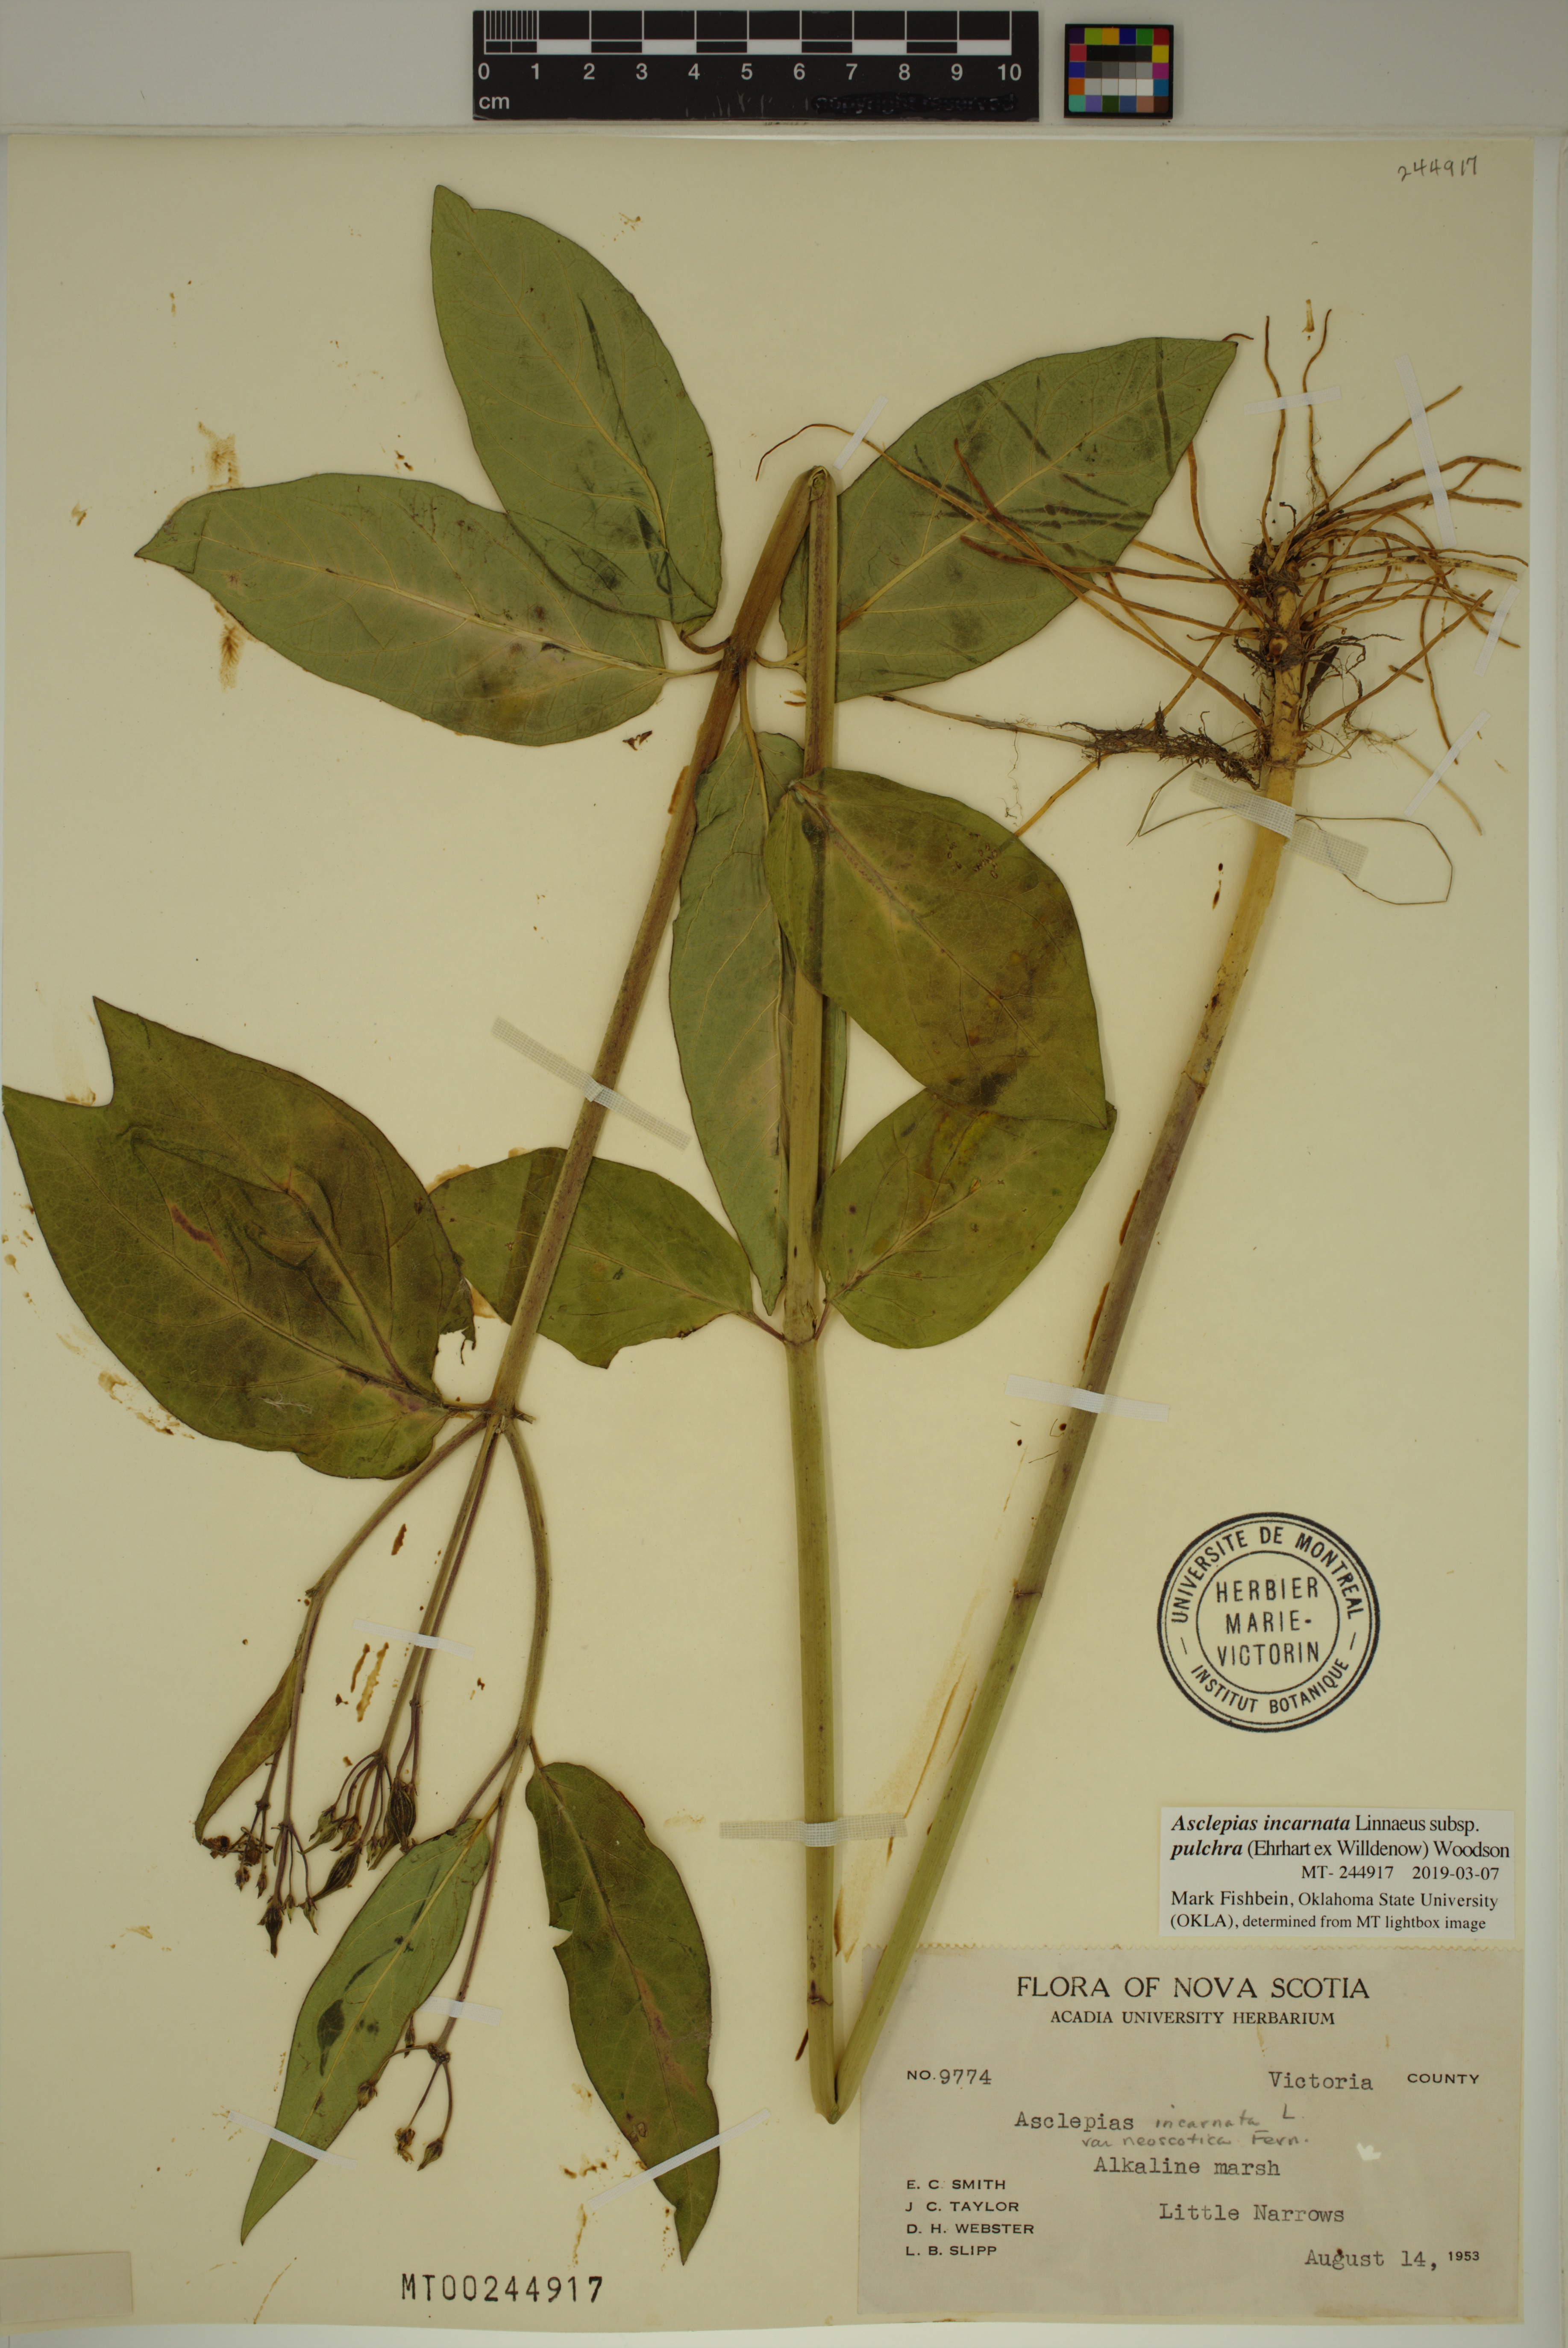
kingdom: Plantae
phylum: Tracheophyta
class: Magnoliopsida
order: Gentianales
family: Apocynaceae
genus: Asclepias
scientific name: Asclepias incarnata
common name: Swamp milkweed
